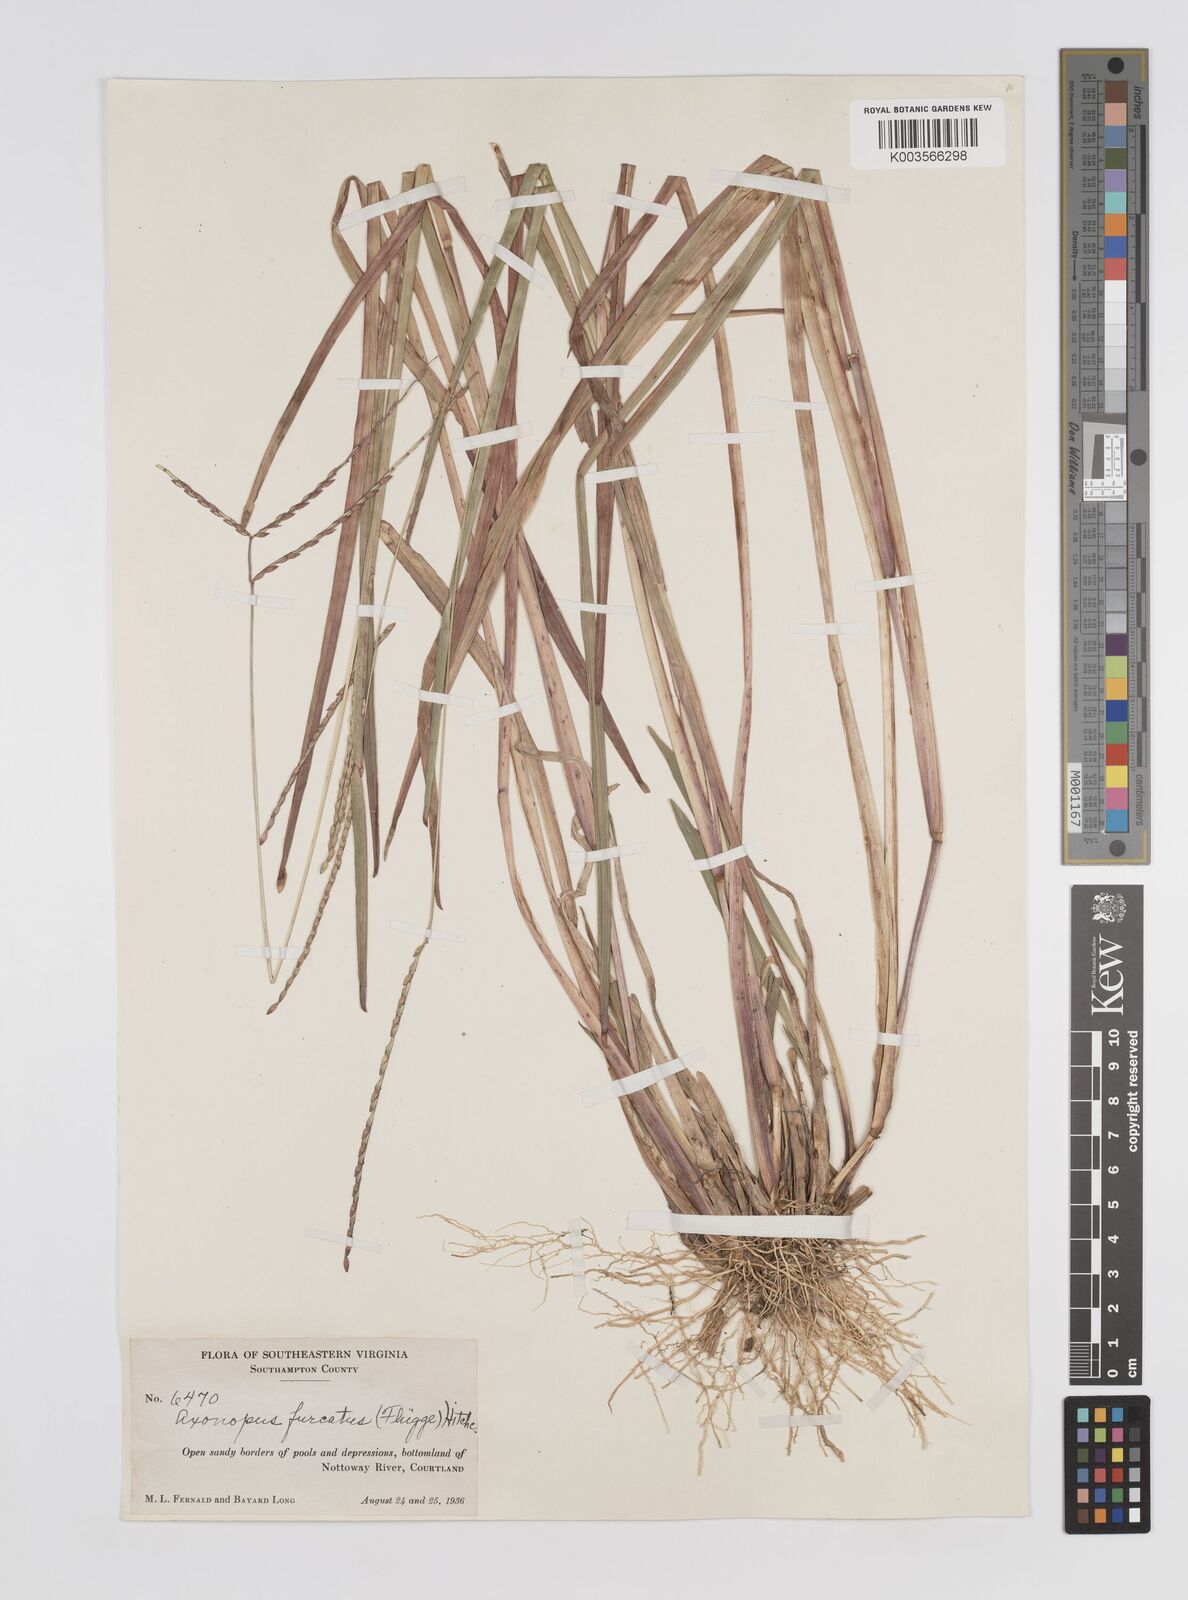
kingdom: Plantae
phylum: Tracheophyta
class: Liliopsida
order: Poales
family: Poaceae
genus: Axonopus
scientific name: Axonopus furcatus
